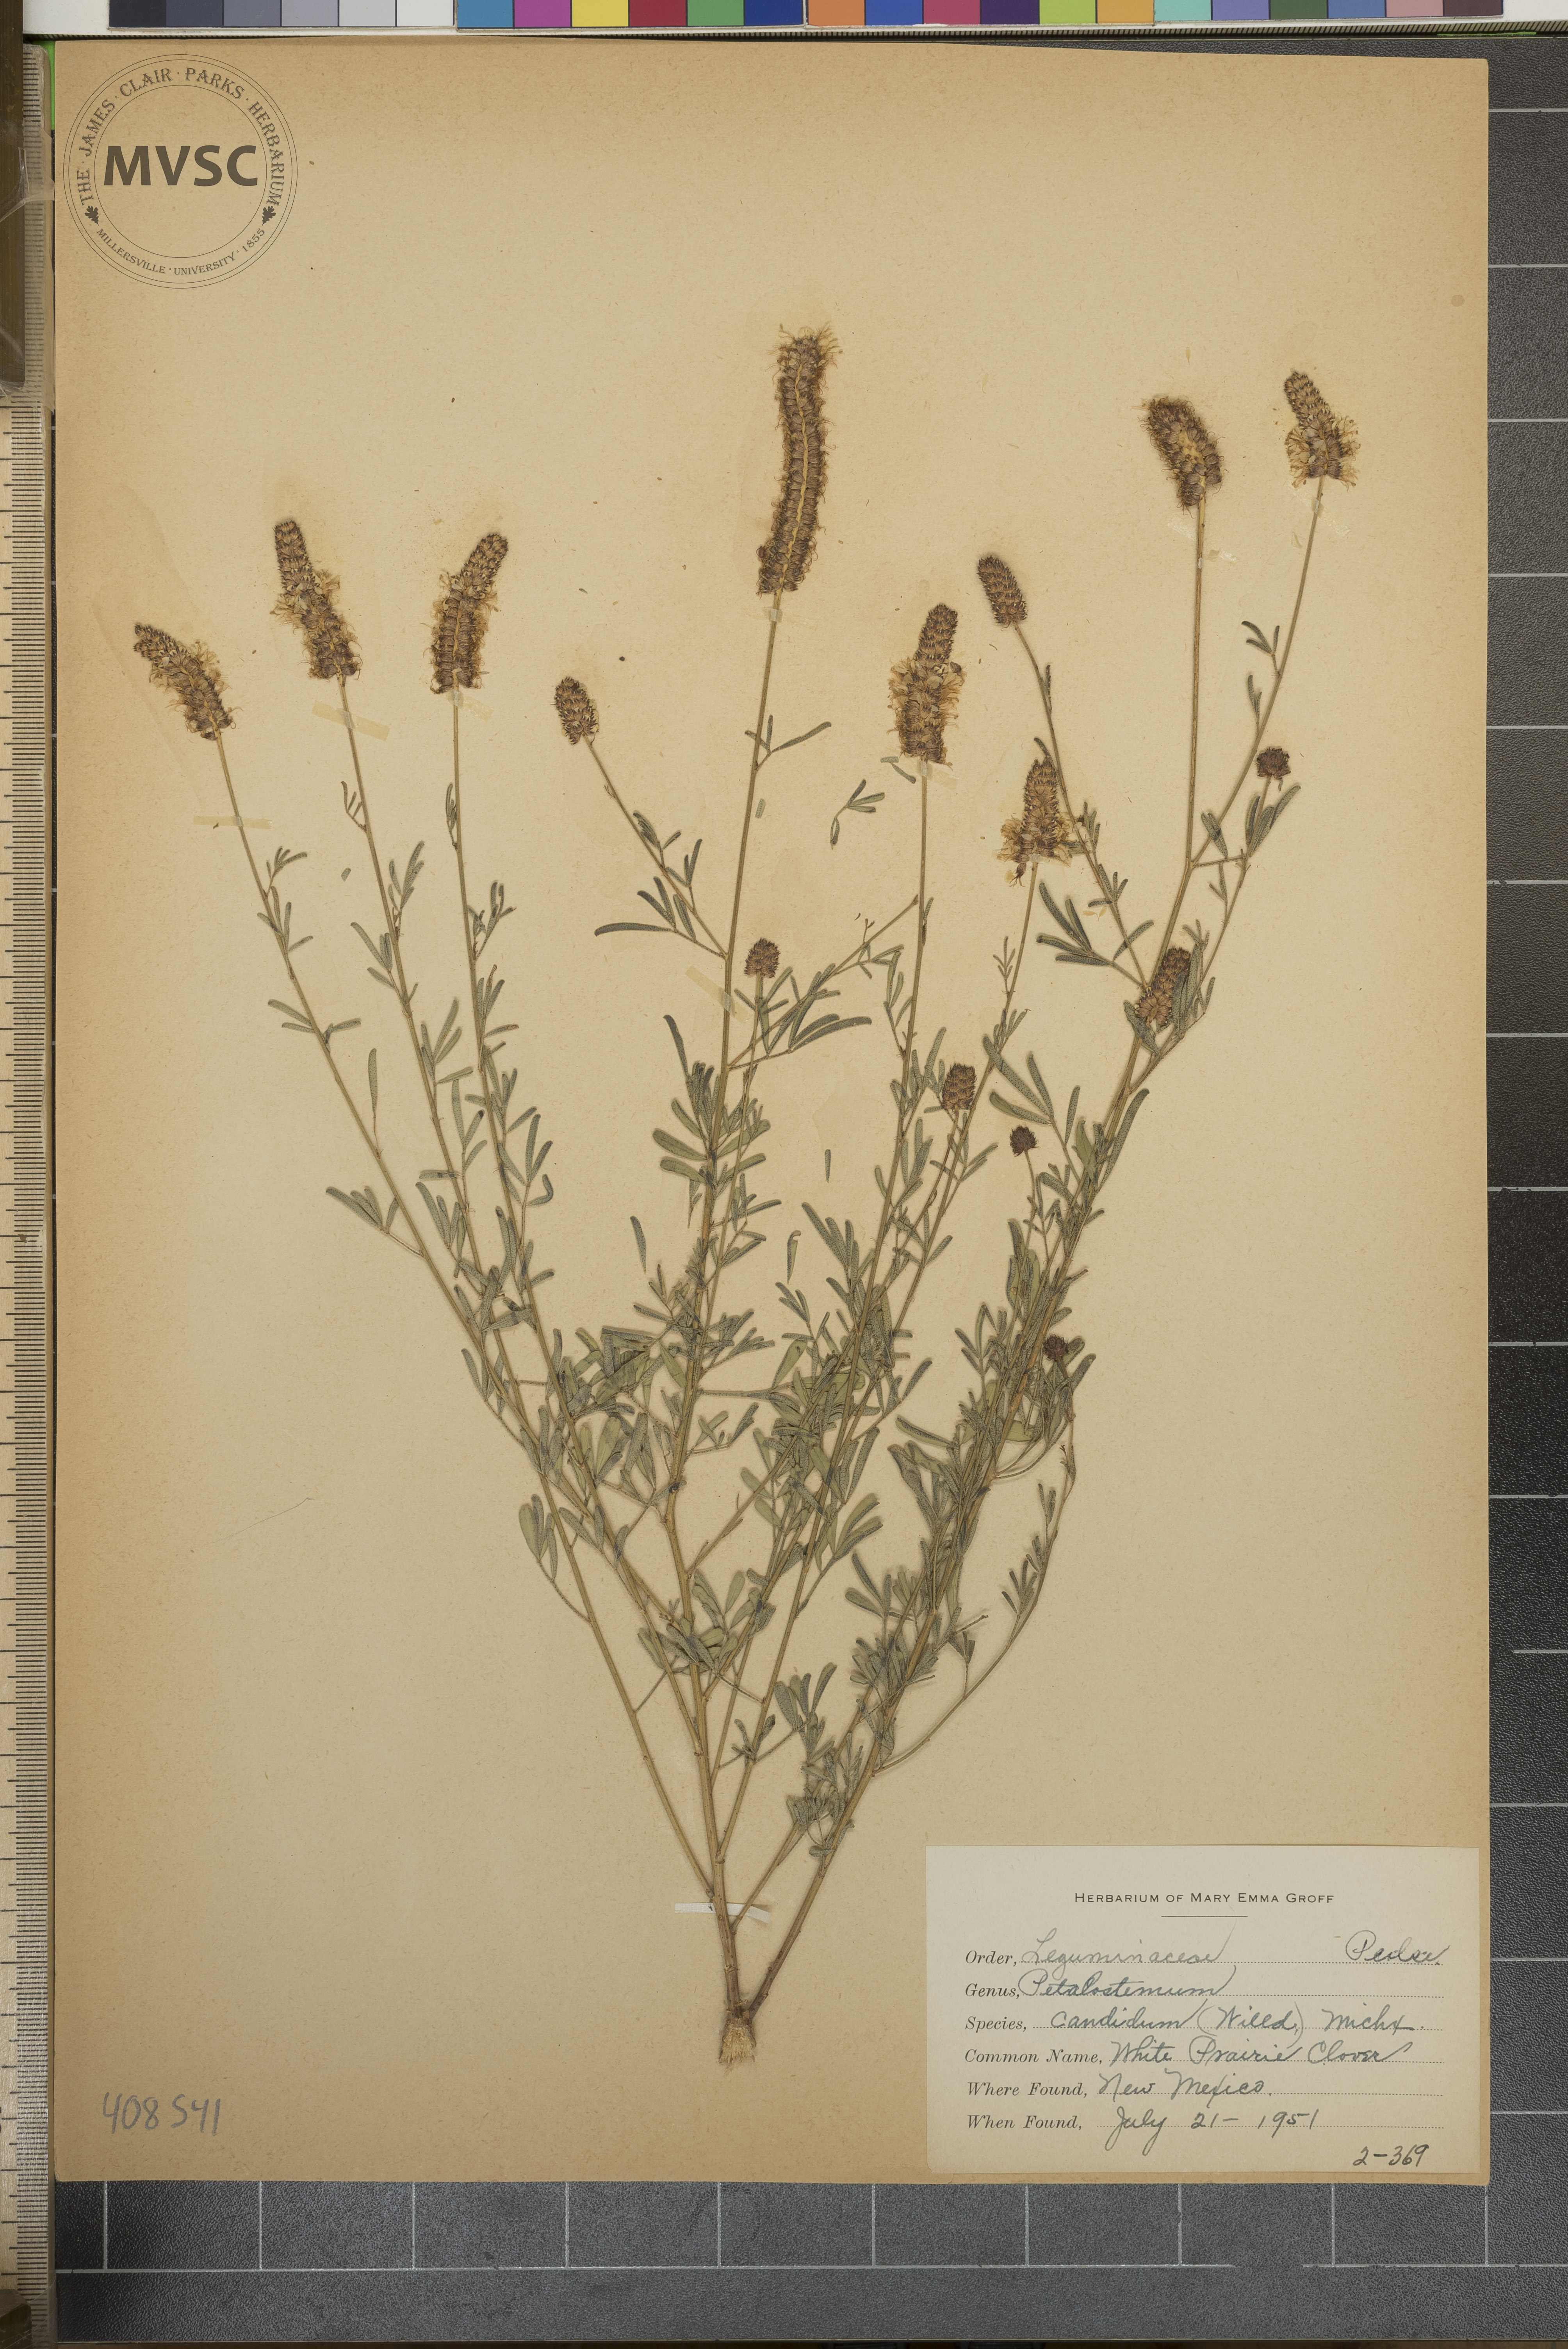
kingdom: Plantae
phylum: Tracheophyta
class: Magnoliopsida
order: Fabales
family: Fabaceae
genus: Dalea
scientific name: Dalea candida
